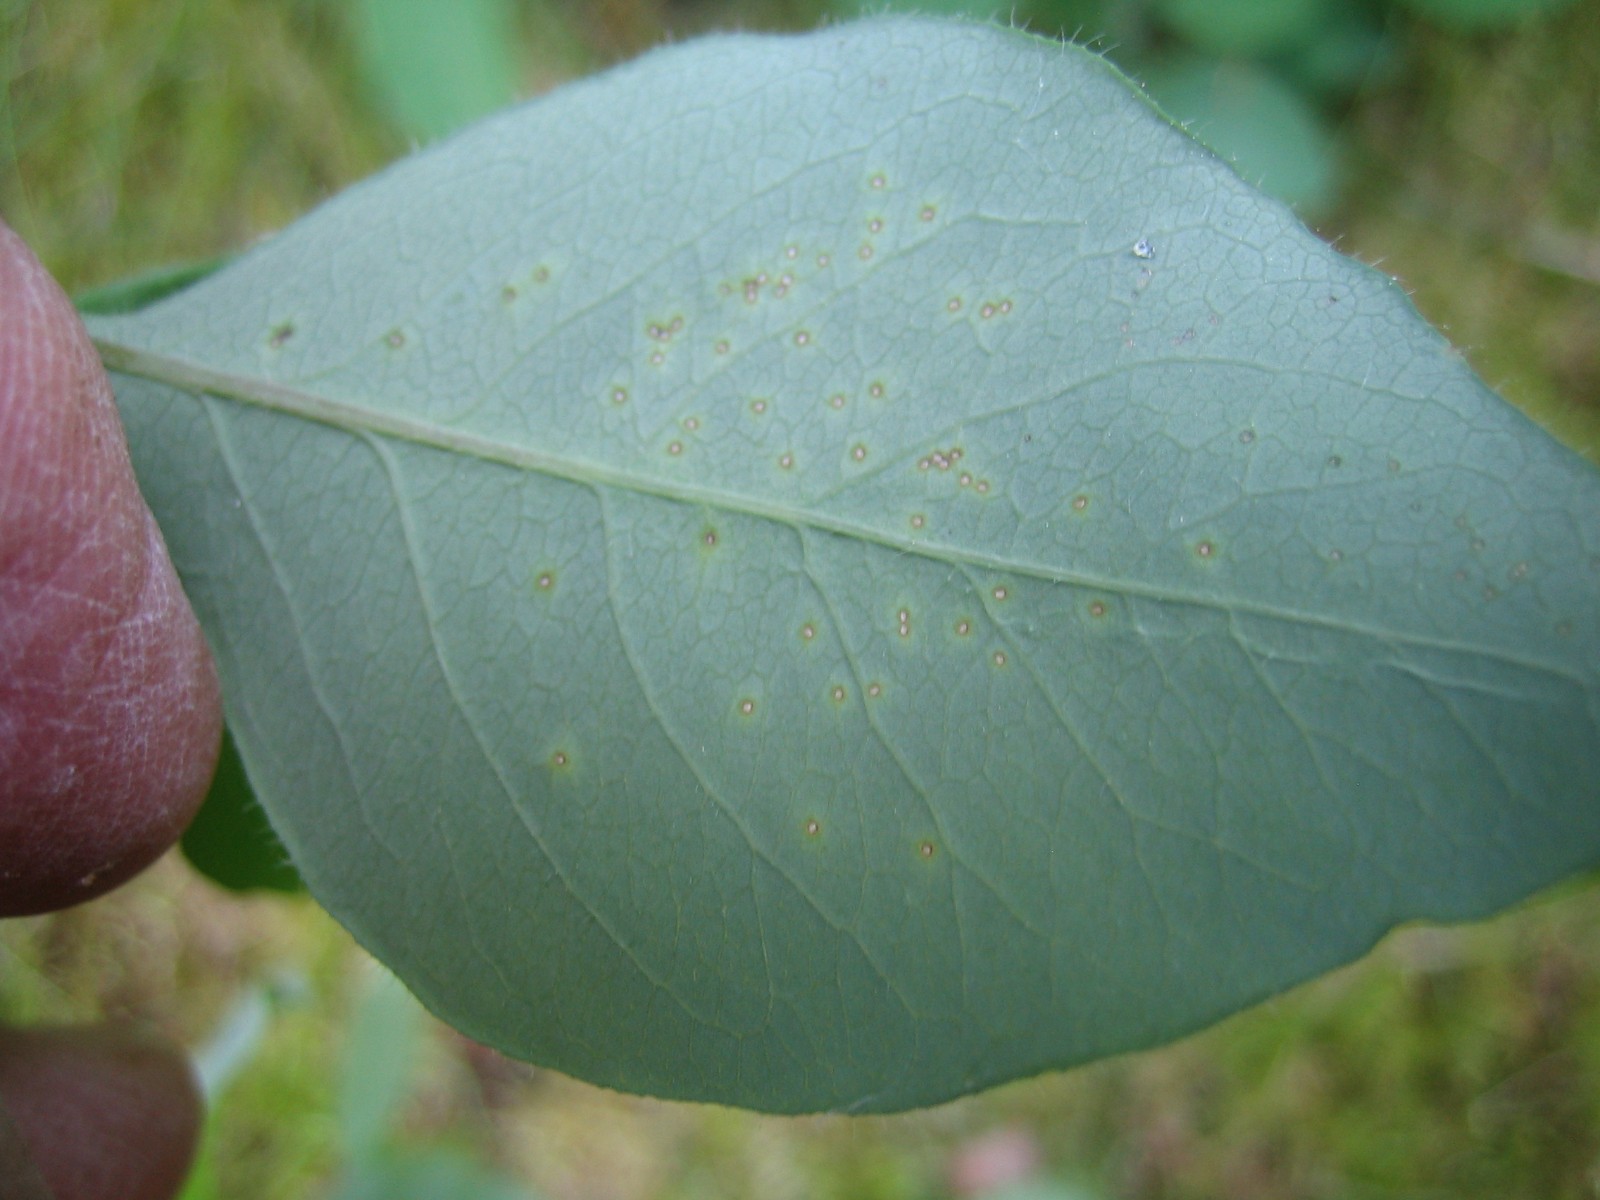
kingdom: Fungi
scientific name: Fungi
